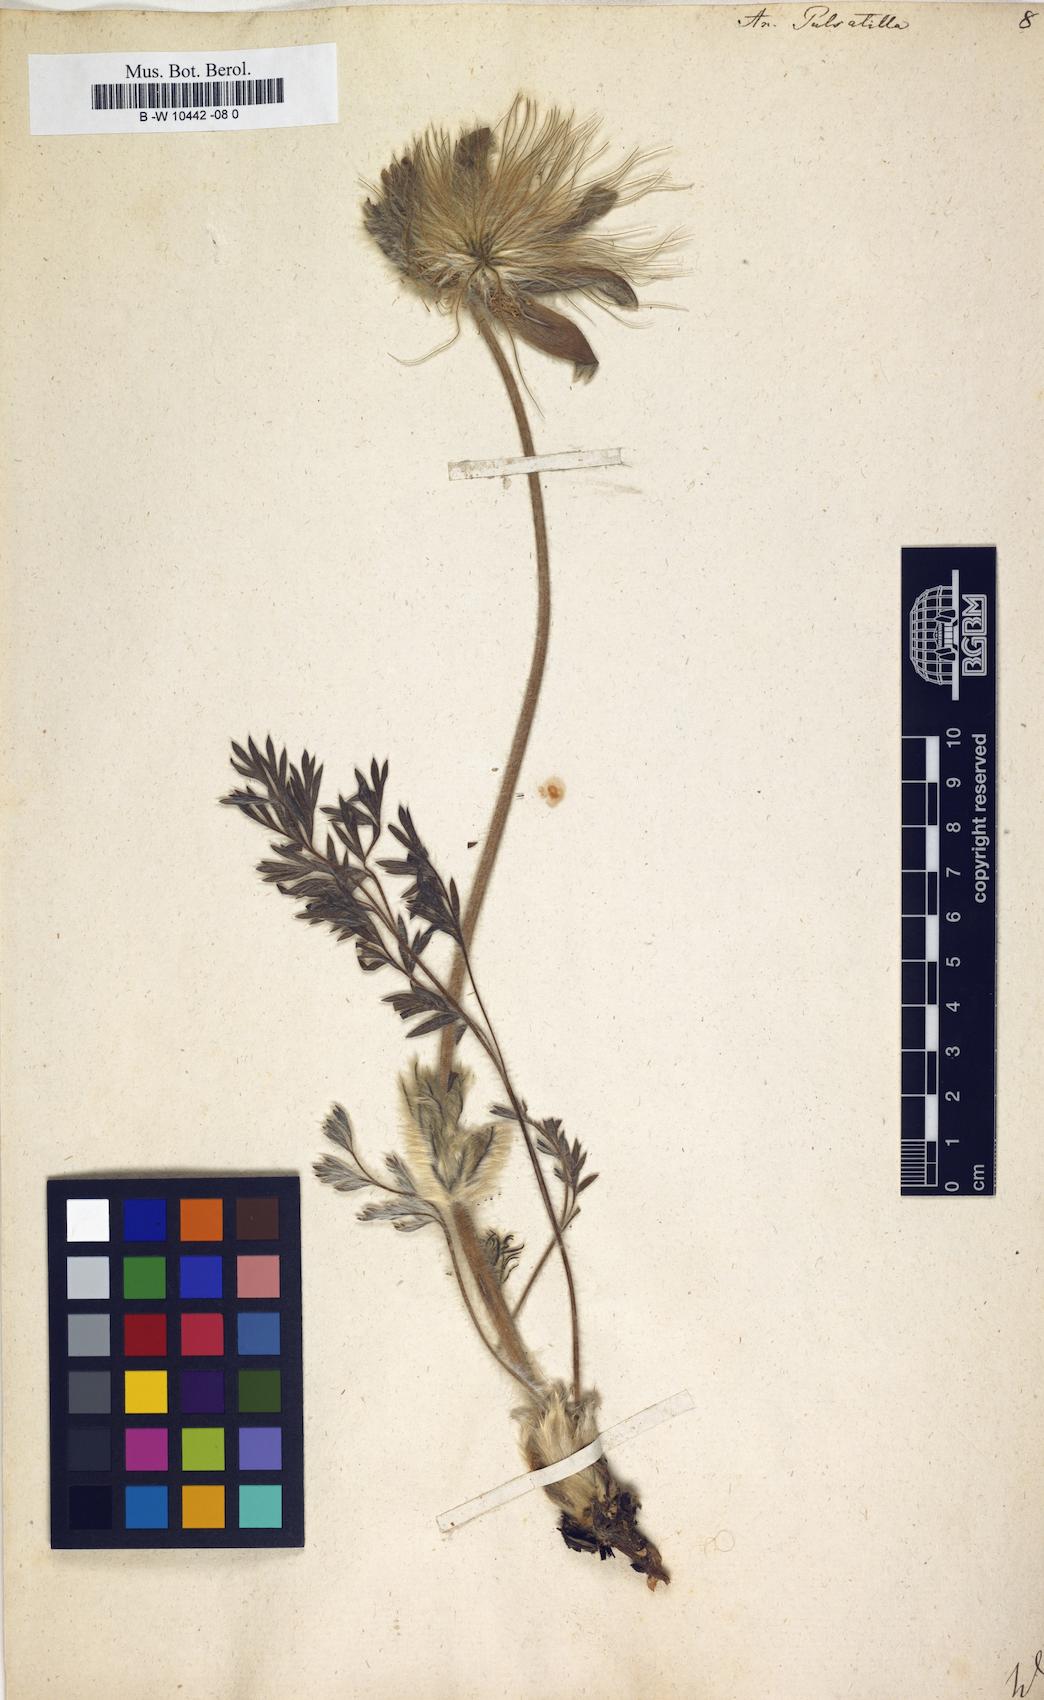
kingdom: Plantae
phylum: Tracheophyta
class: Magnoliopsida
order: Ranunculales
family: Ranunculaceae
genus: Pulsatilla
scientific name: Pulsatilla vulgaris
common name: Pasqueflower
